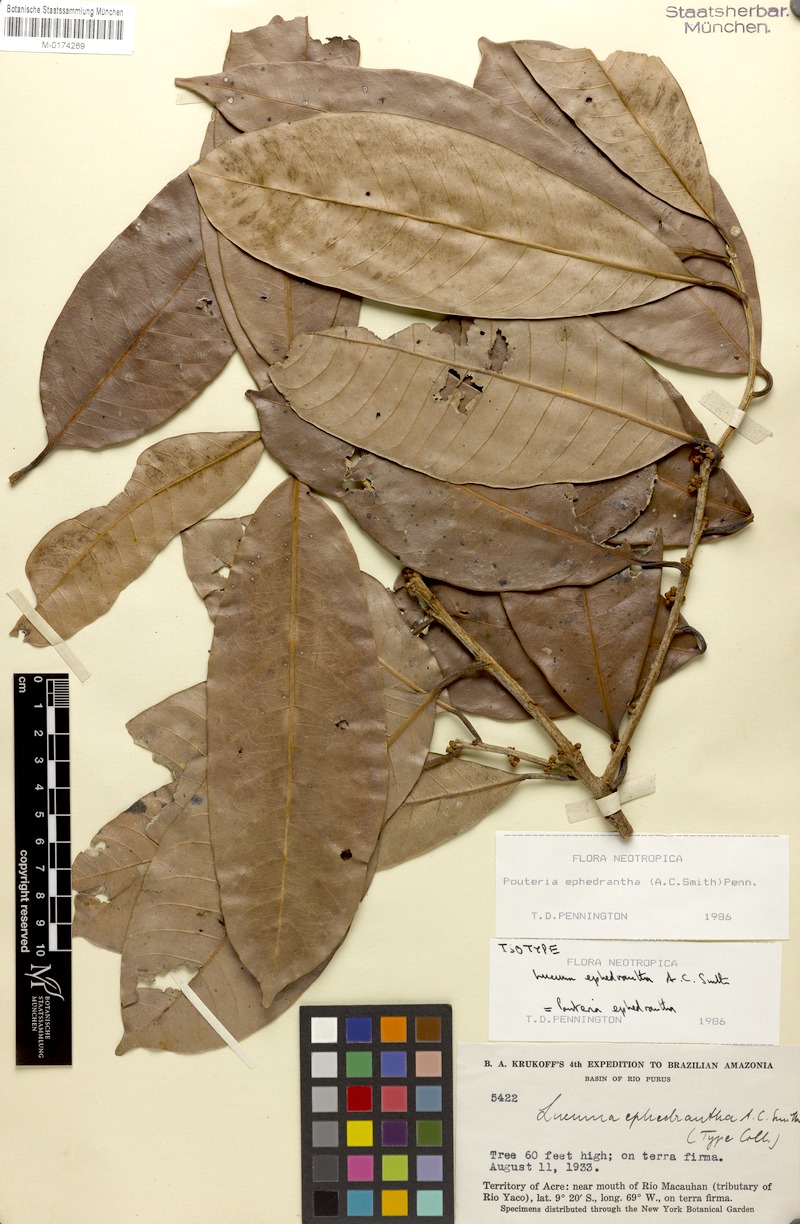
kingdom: Plantae
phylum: Tracheophyta
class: Magnoliopsida
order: Ericales
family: Sapotaceae
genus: Pouteria
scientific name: Pouteria ephedrantha
